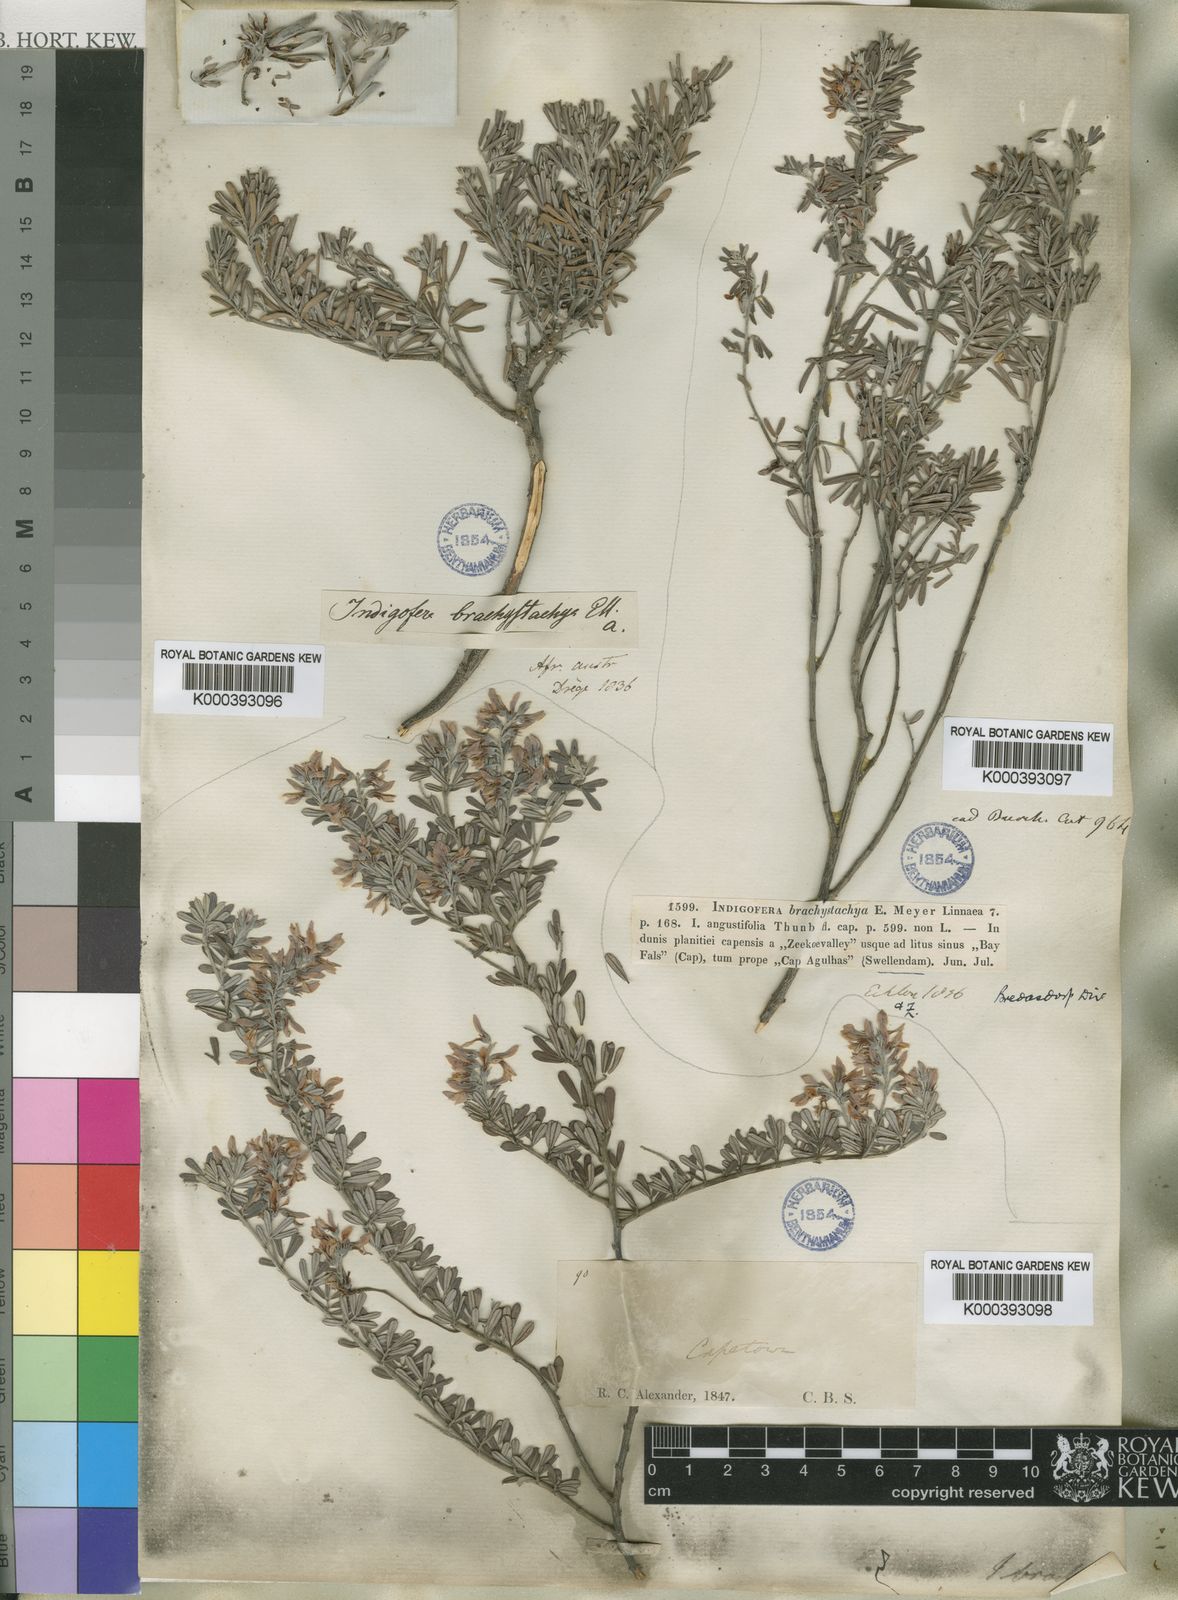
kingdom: Plantae
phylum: Tracheophyta
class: Magnoliopsida
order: Fabales
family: Fabaceae
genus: Indigofera
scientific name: Indigofera brachystachya
